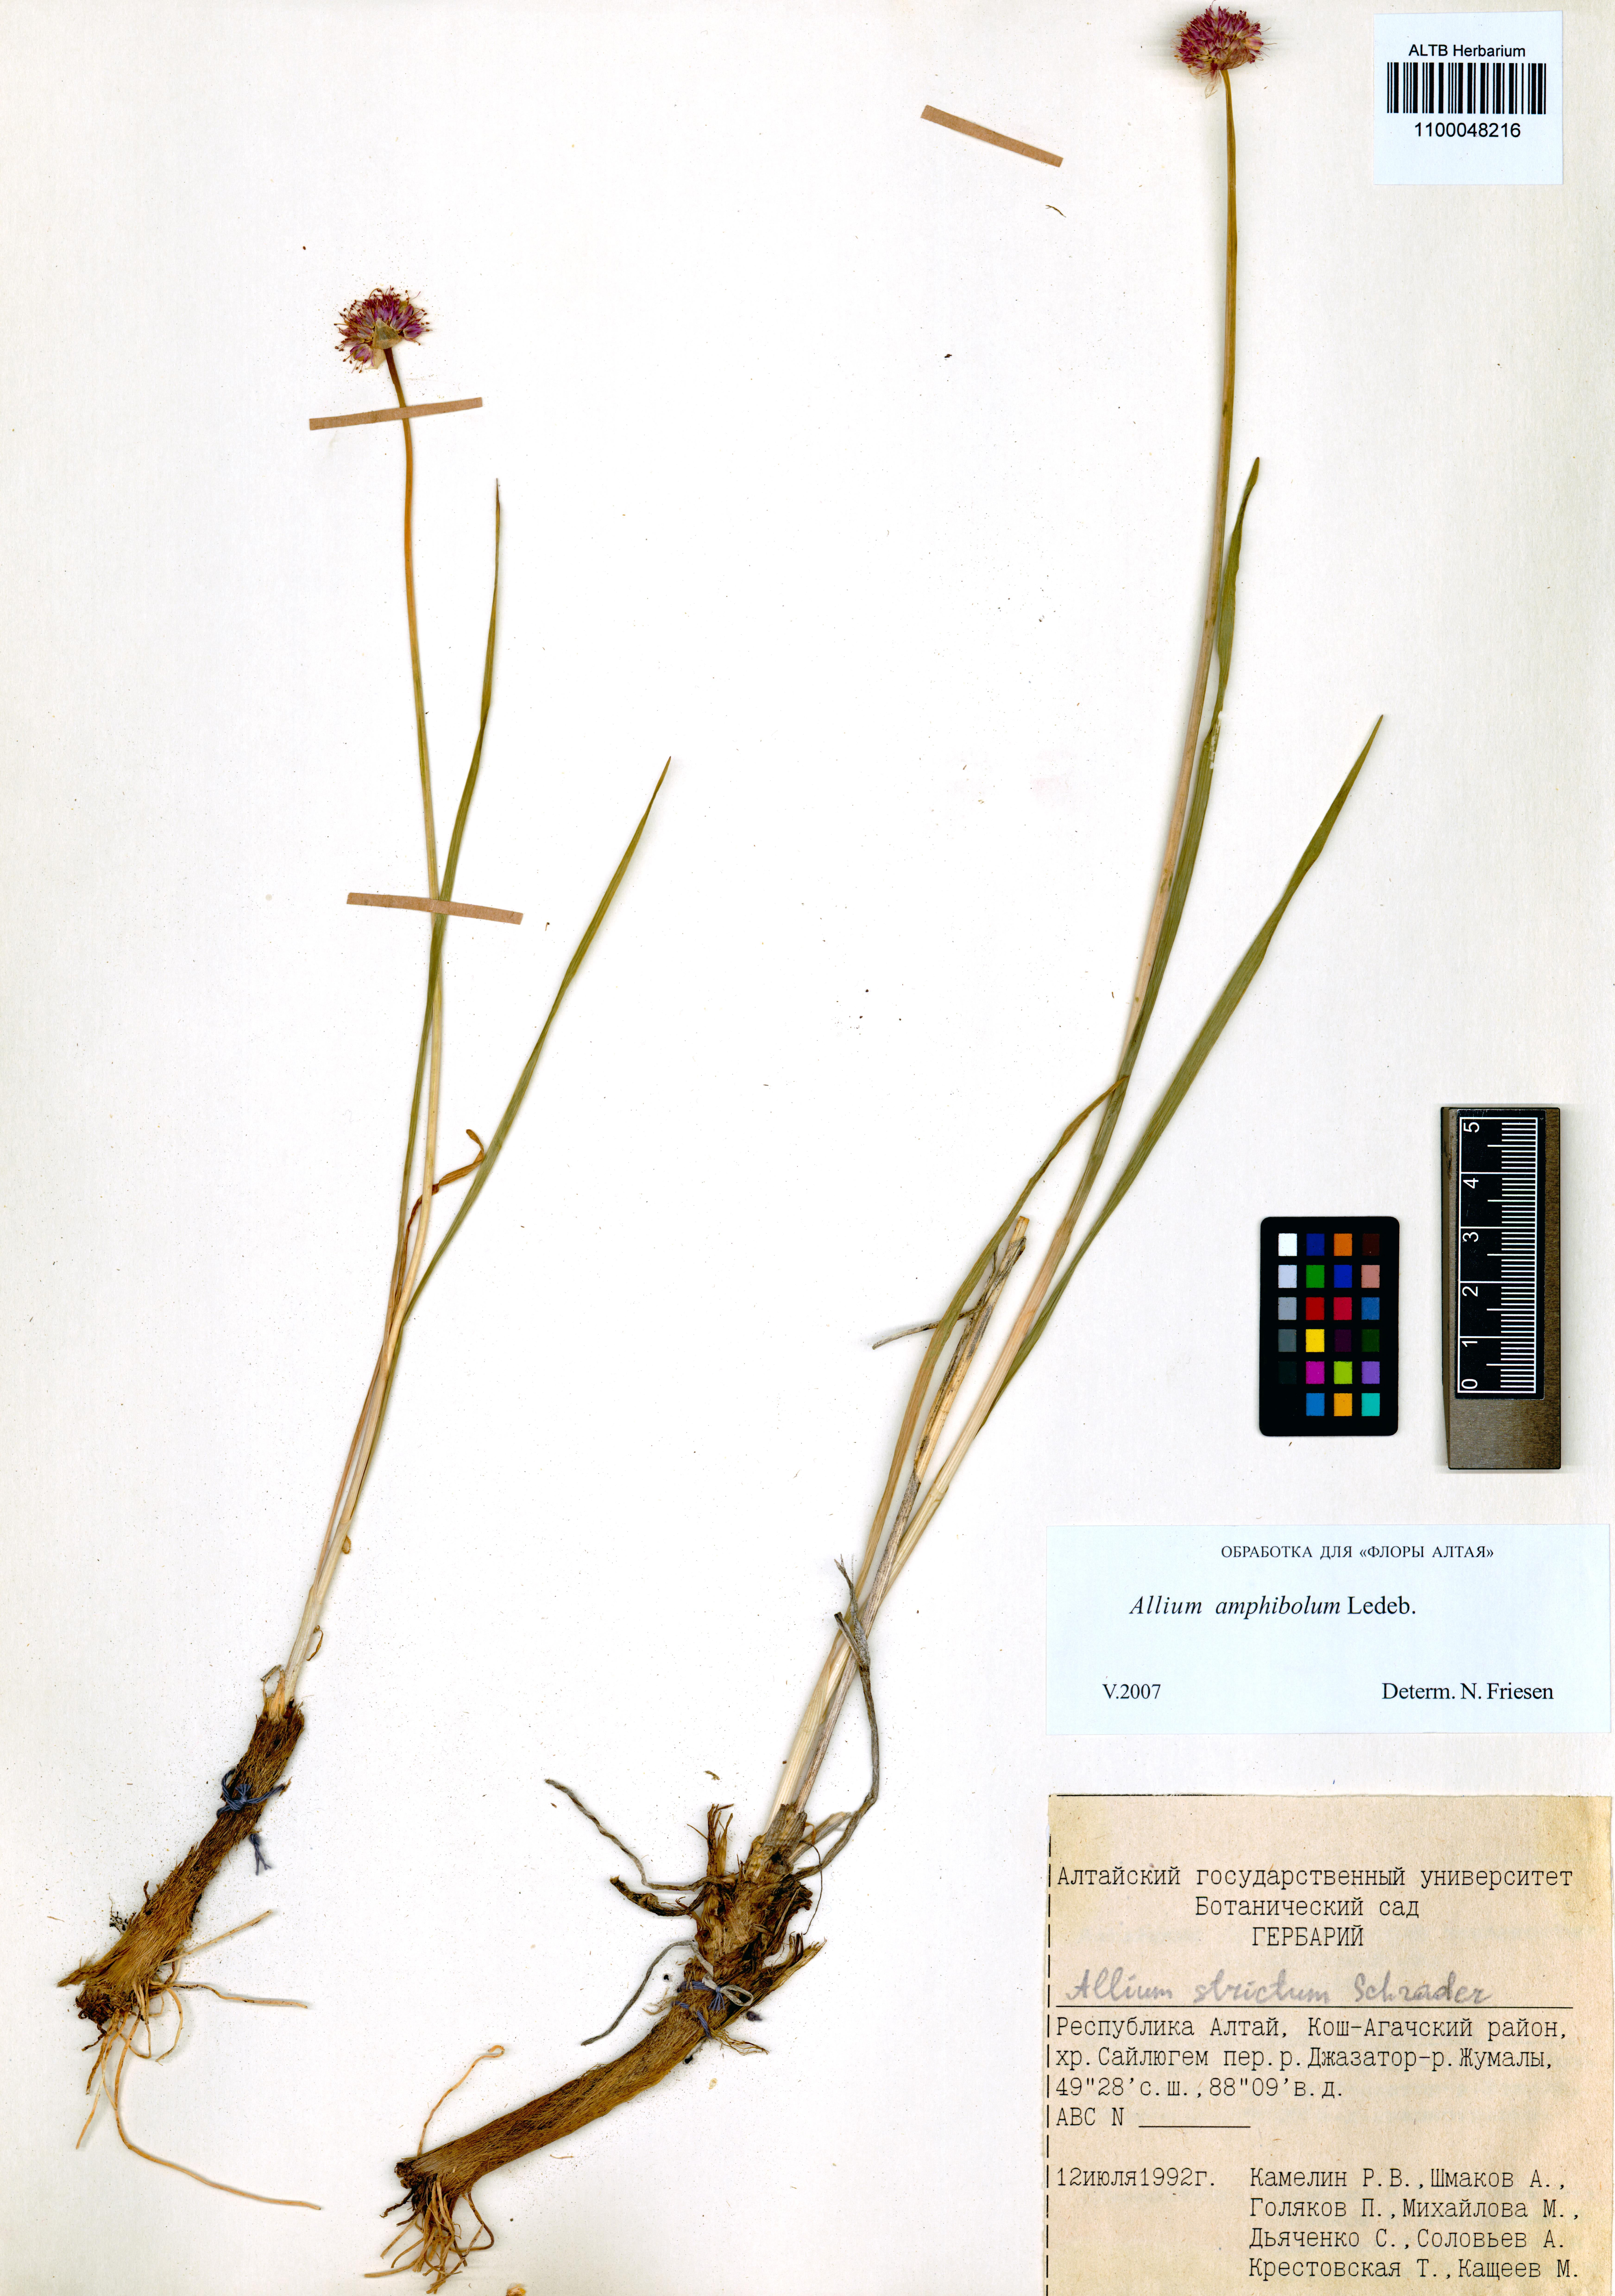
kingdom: Plantae
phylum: Tracheophyta
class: Liliopsida
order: Asparagales
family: Amaryllidaceae
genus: Allium
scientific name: Allium amphibolum
